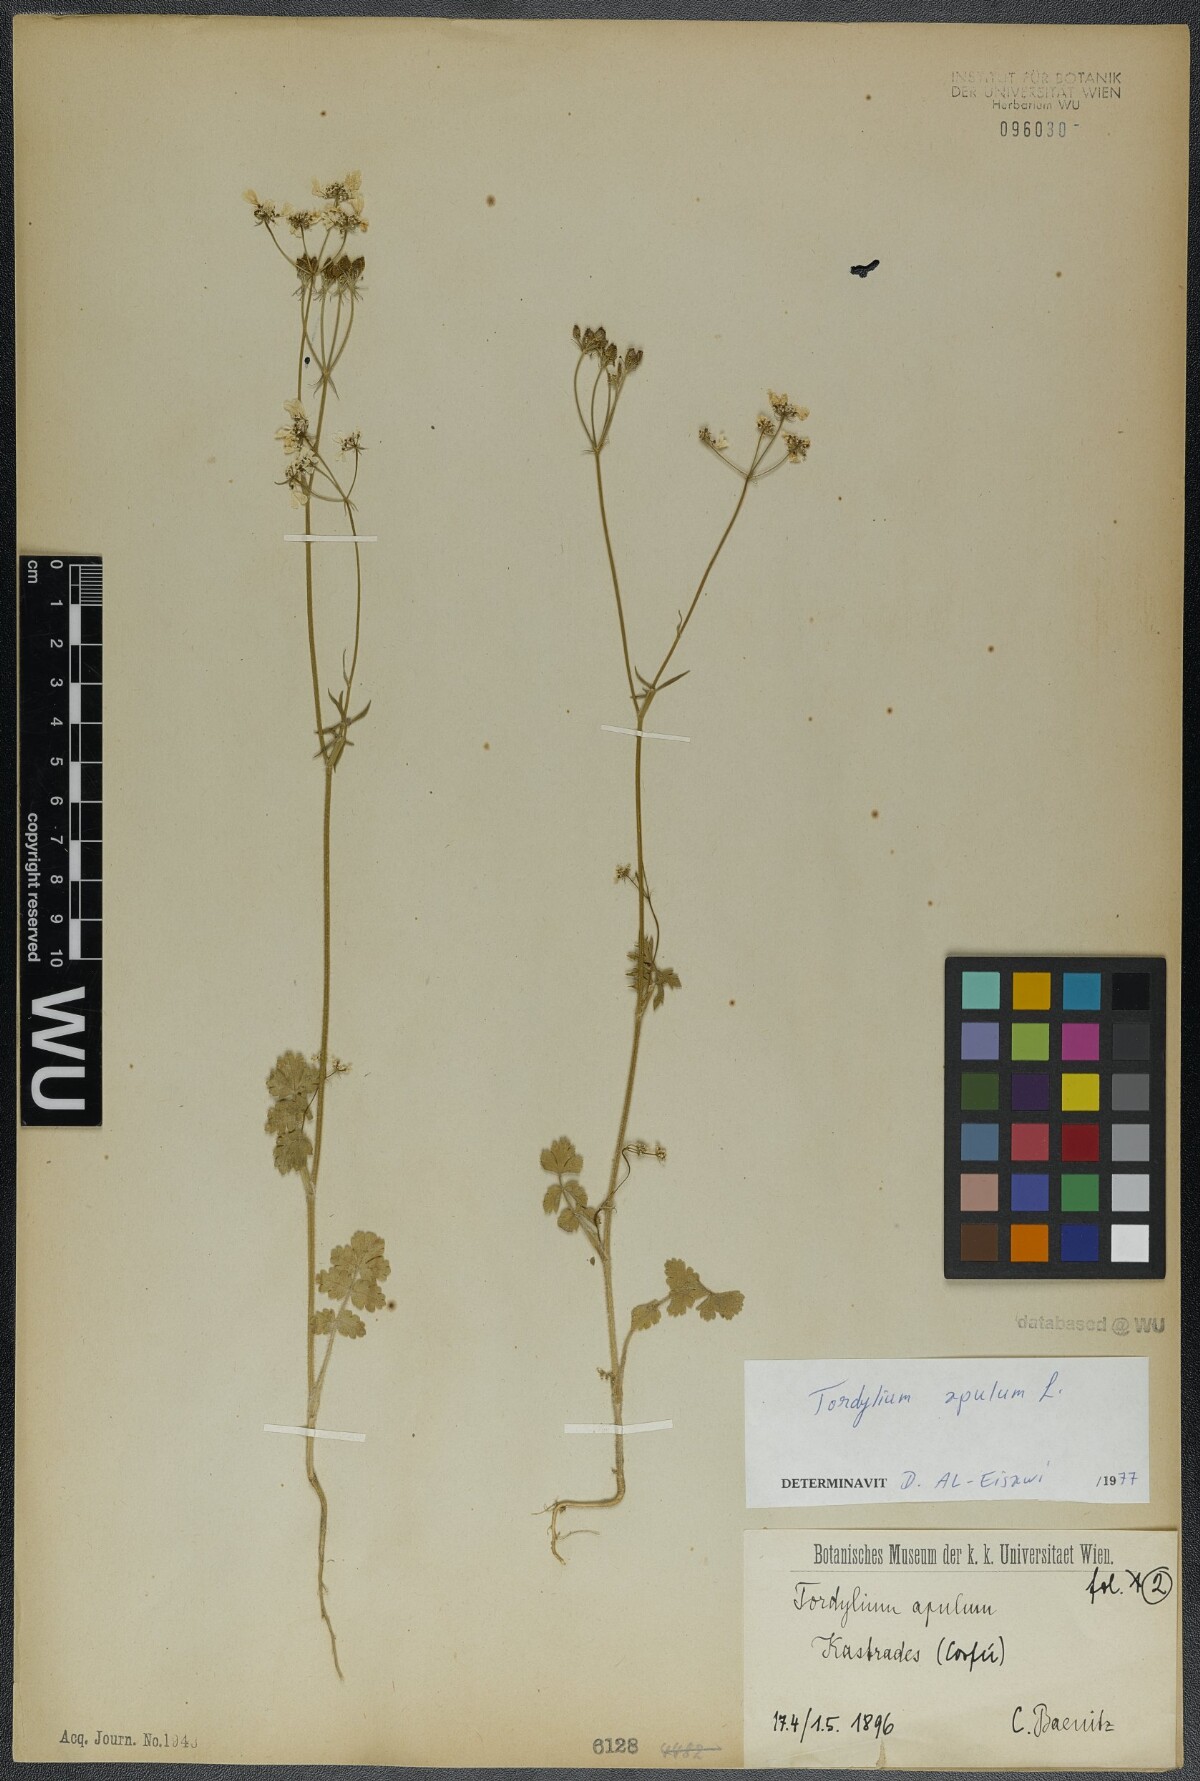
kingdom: Plantae
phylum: Tracheophyta
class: Magnoliopsida
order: Apiales
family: Apiaceae
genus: Tordylium
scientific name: Tordylium apulum
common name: Mediterranean hartwort
